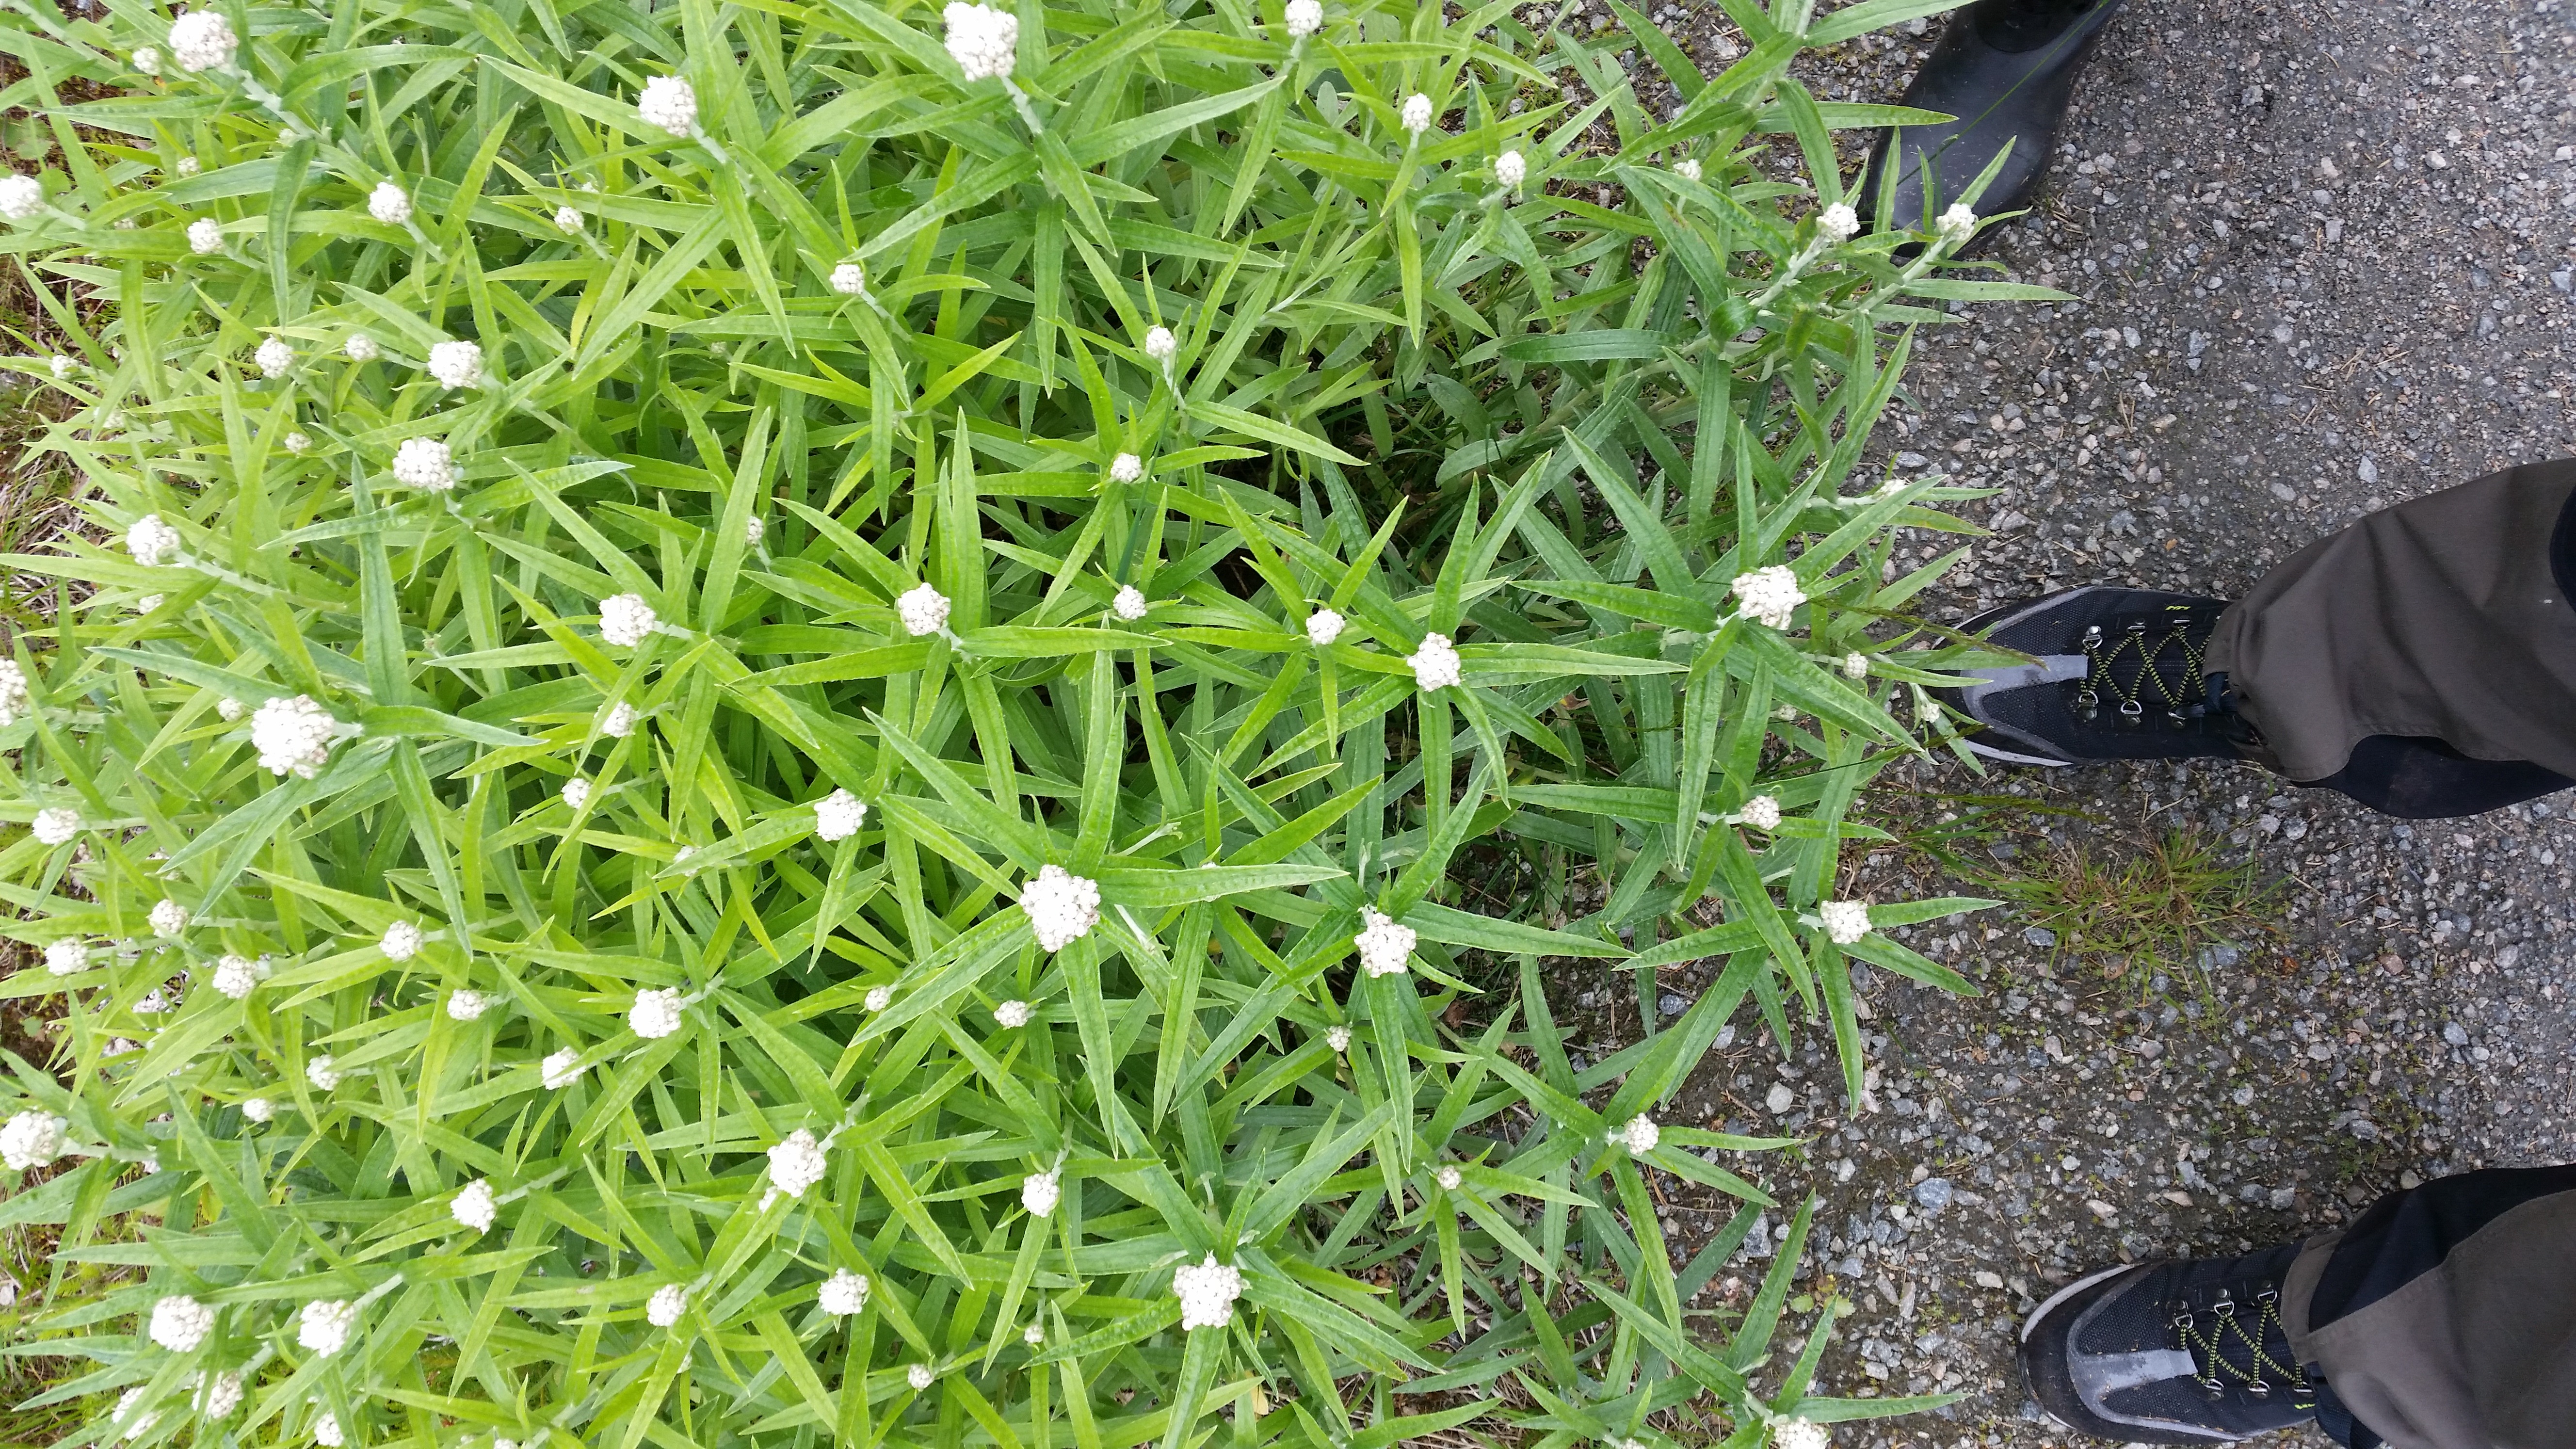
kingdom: Plantae
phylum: Tracheophyta
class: Magnoliopsida
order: Asterales
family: Asteraceae
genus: Anaphalis
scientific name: Anaphalis margaritacea
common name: Pearly everlasting
